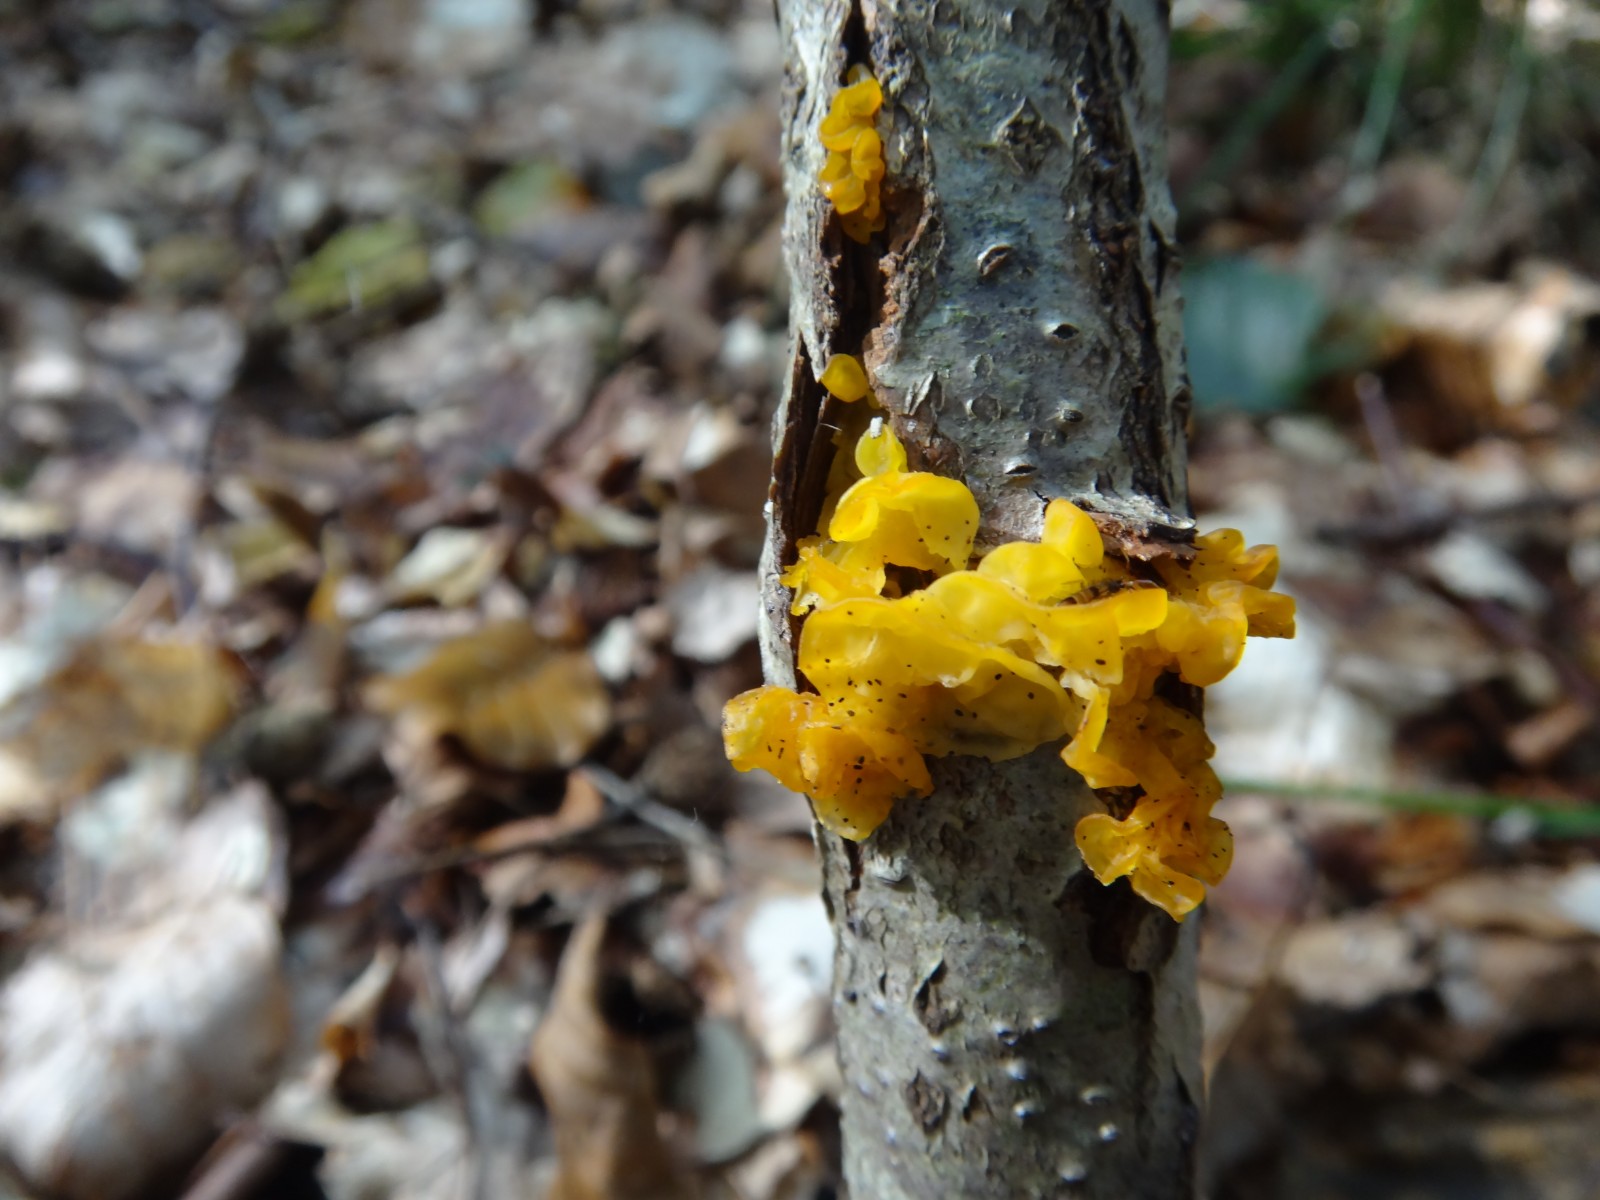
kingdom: Fungi
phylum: Basidiomycota
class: Tremellomycetes
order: Tremellales
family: Tremellaceae
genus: Tremella
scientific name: Tremella mesenterica
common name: gul bævresvamp
